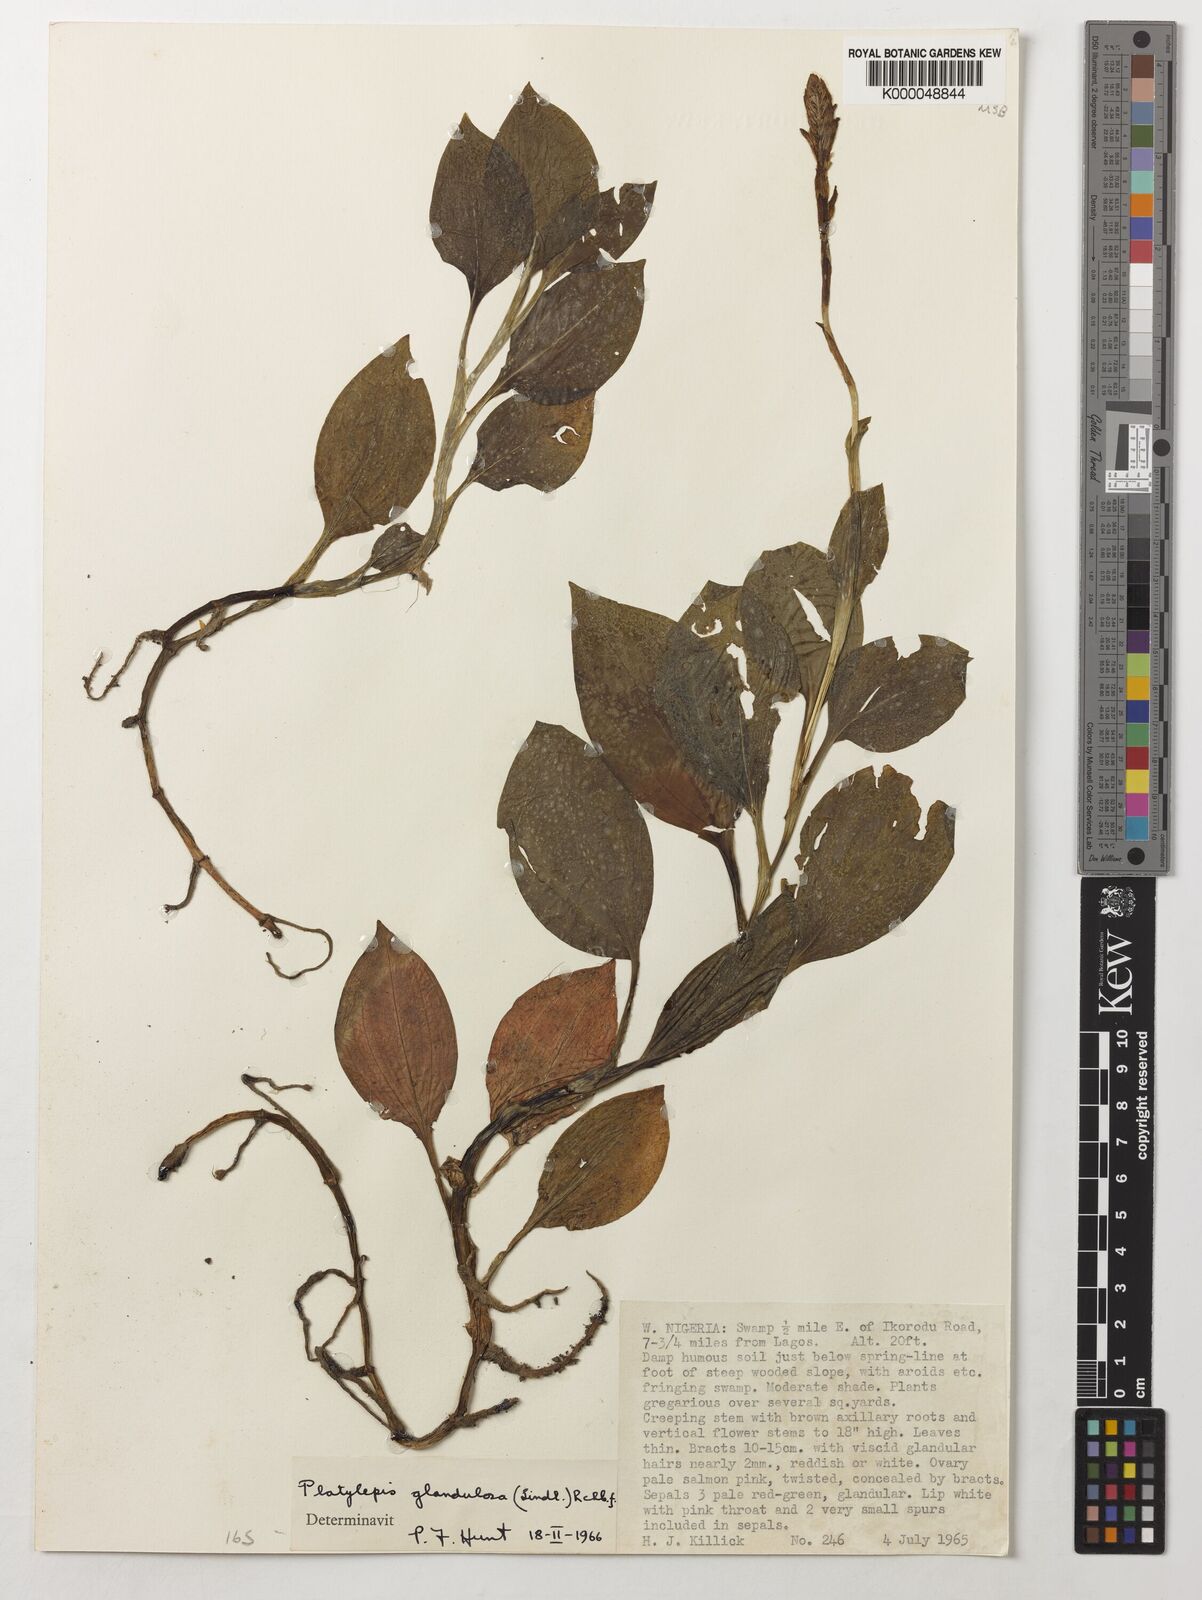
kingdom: Plantae
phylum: Tracheophyta
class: Liliopsida
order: Asparagales
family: Orchidaceae
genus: Platylepis
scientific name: Platylepis glandulosa
